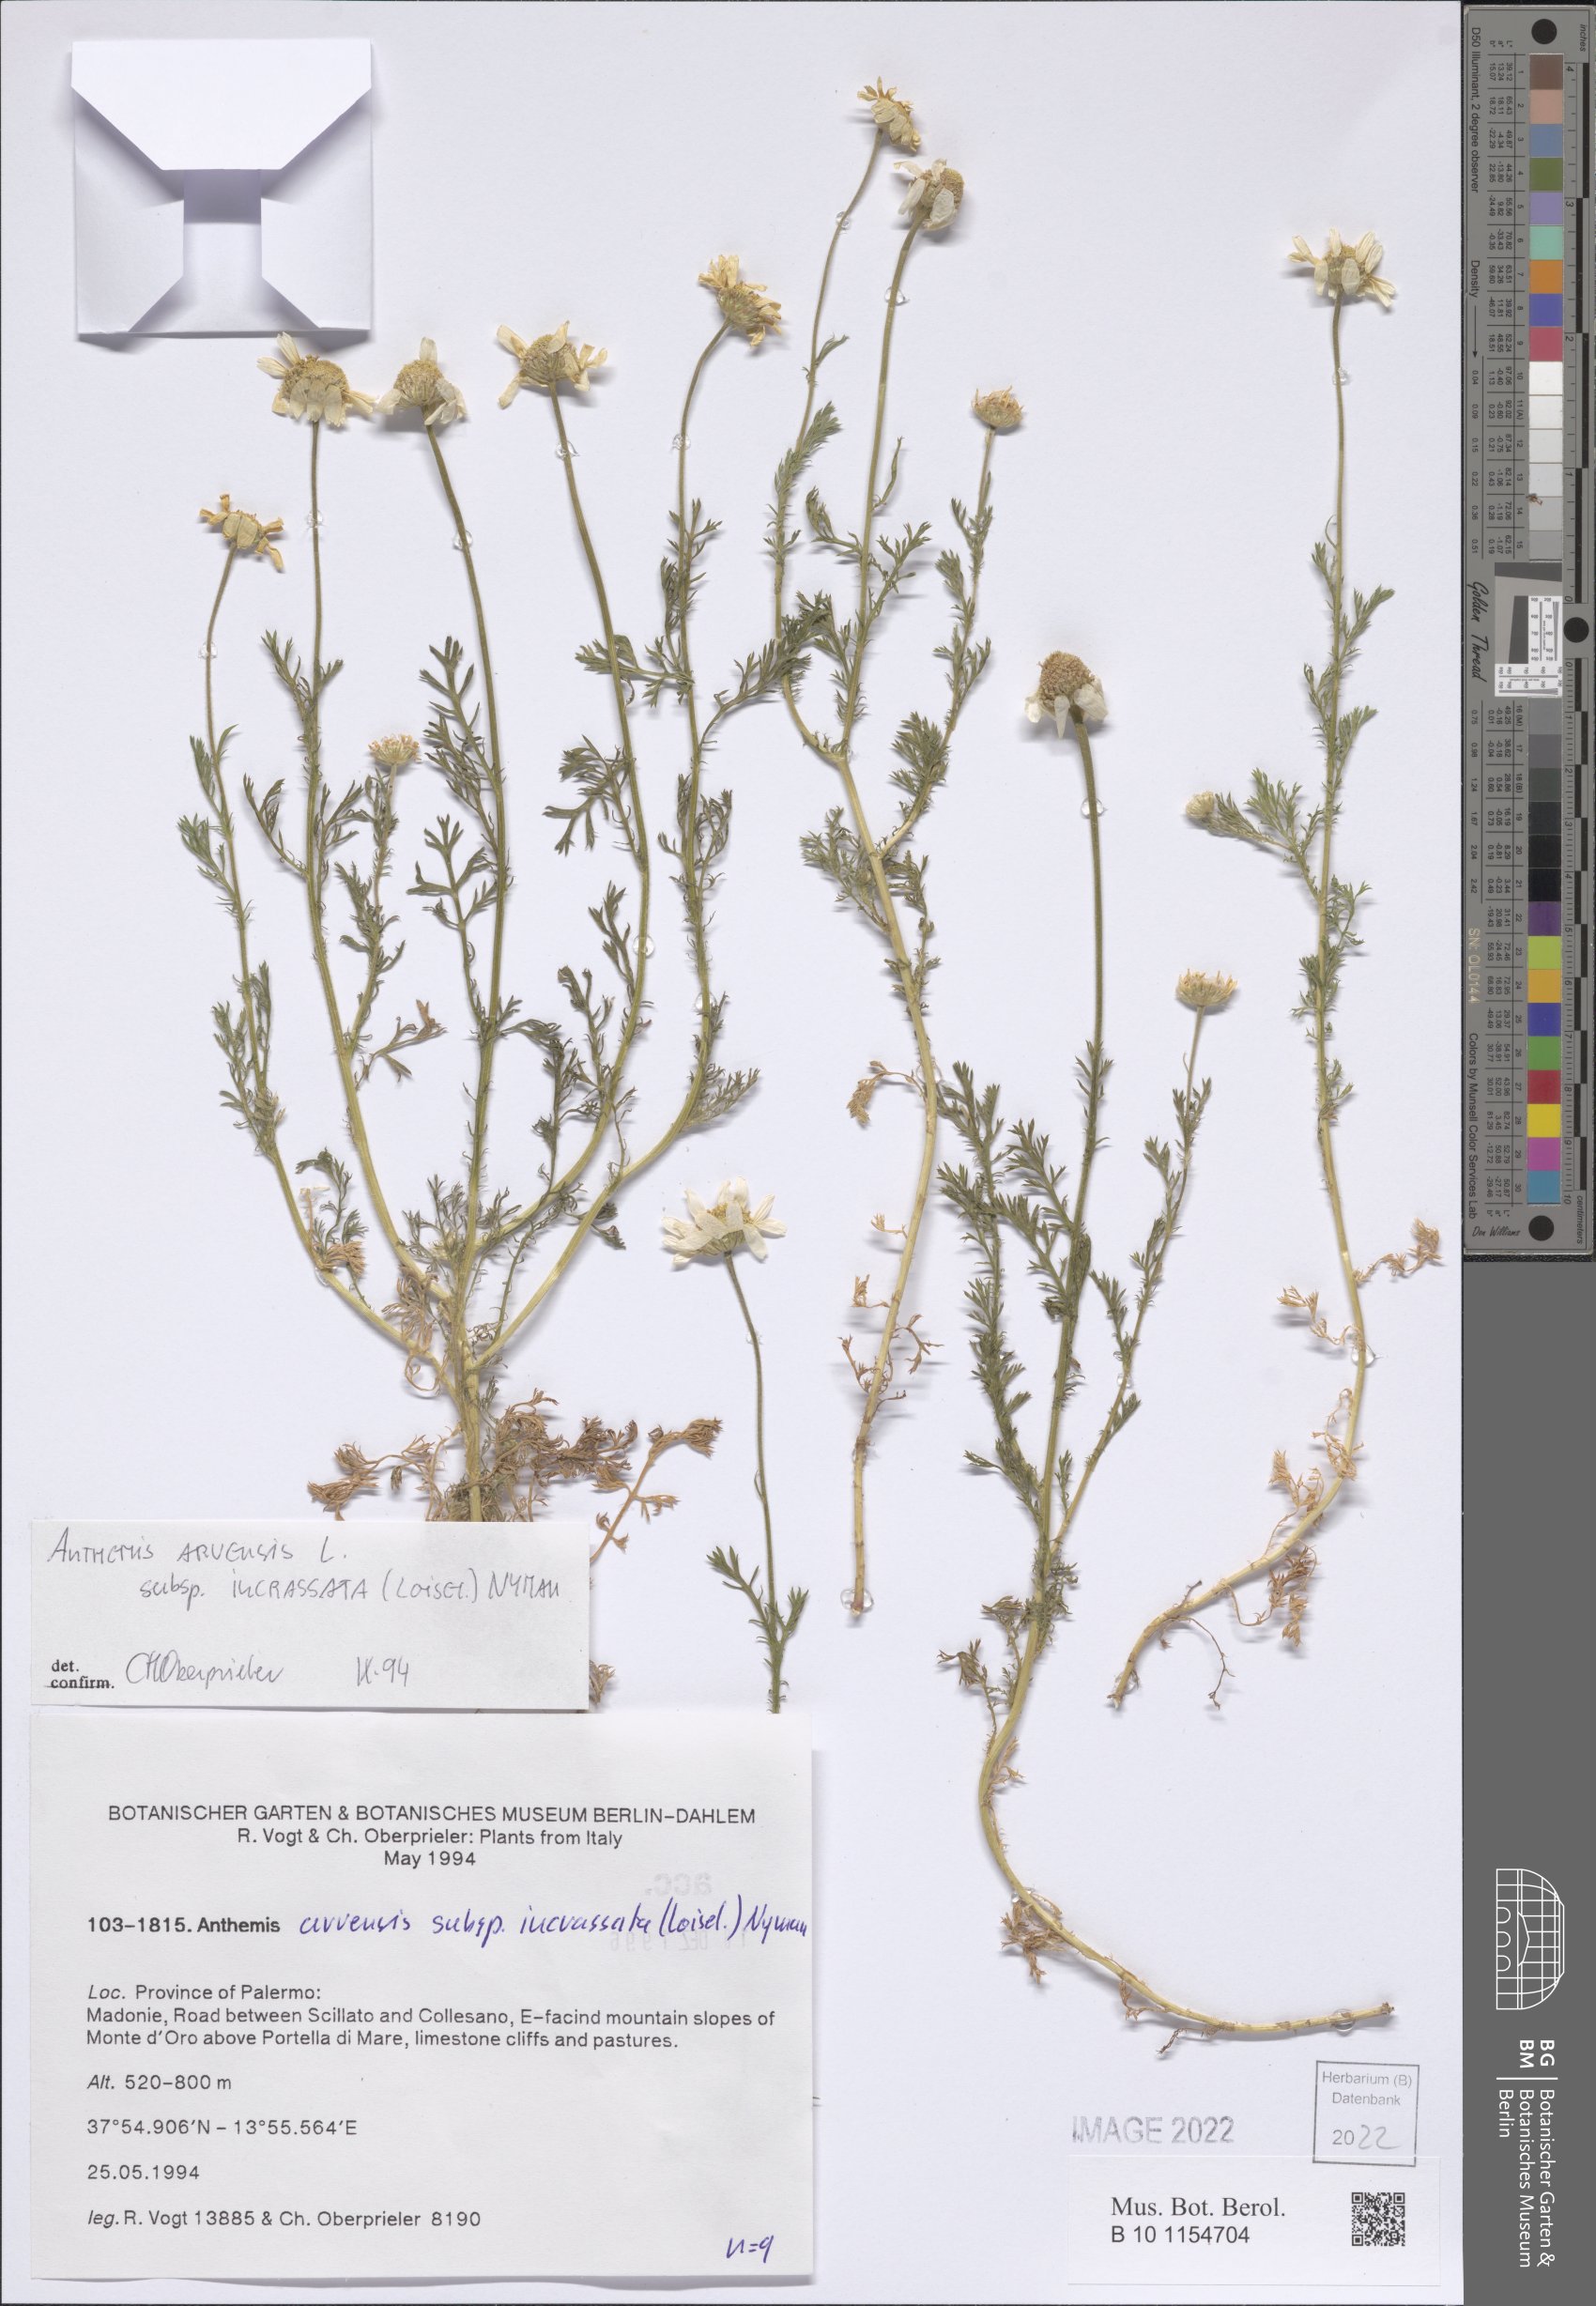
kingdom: Plantae
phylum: Tracheophyta
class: Magnoliopsida
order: Asterales
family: Asteraceae
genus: Anthemis
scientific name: Anthemis arvensis
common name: Corn chamomile
